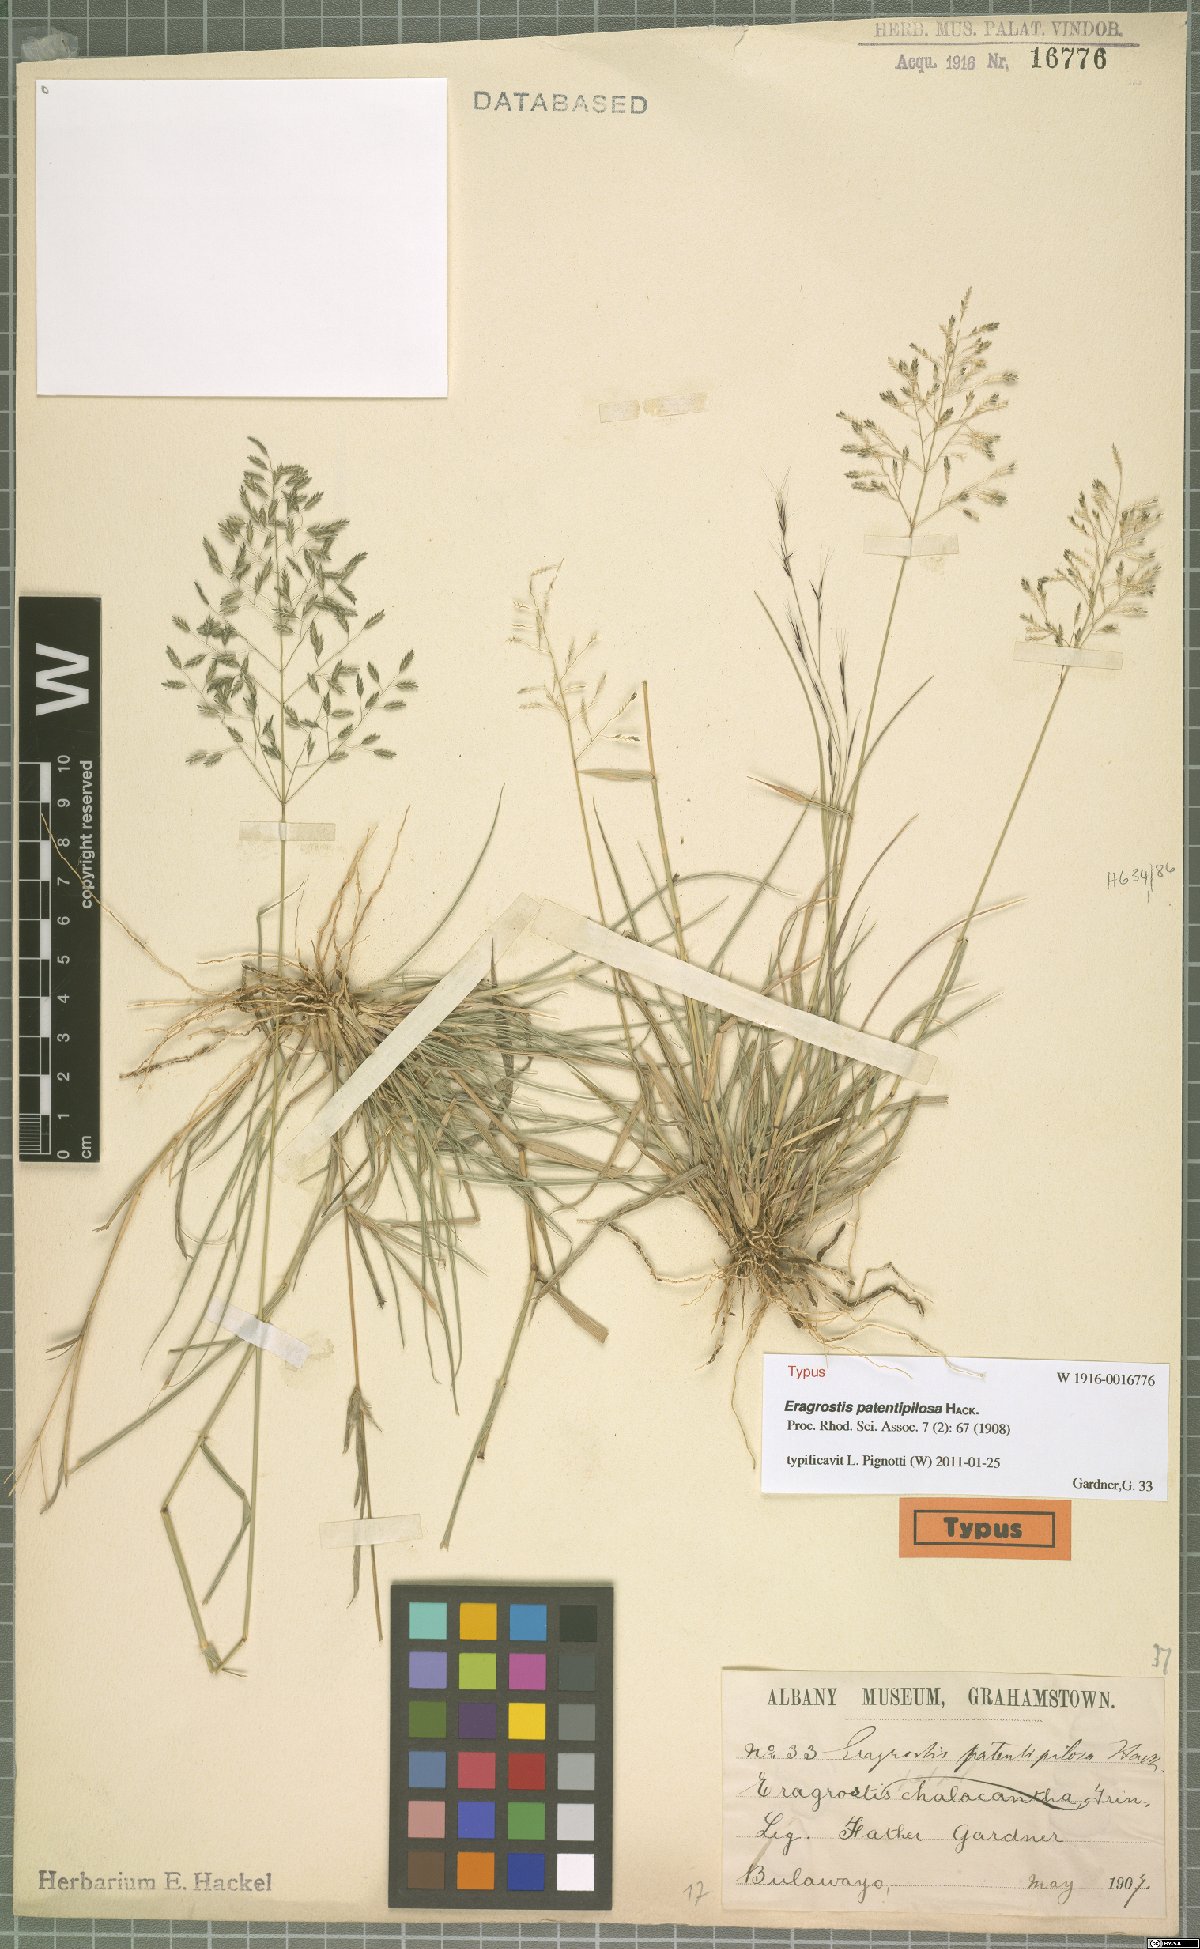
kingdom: Plantae
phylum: Tracheophyta
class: Liliopsida
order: Poales
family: Poaceae
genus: Eragrostis
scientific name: Eragrostis patentipilosa
